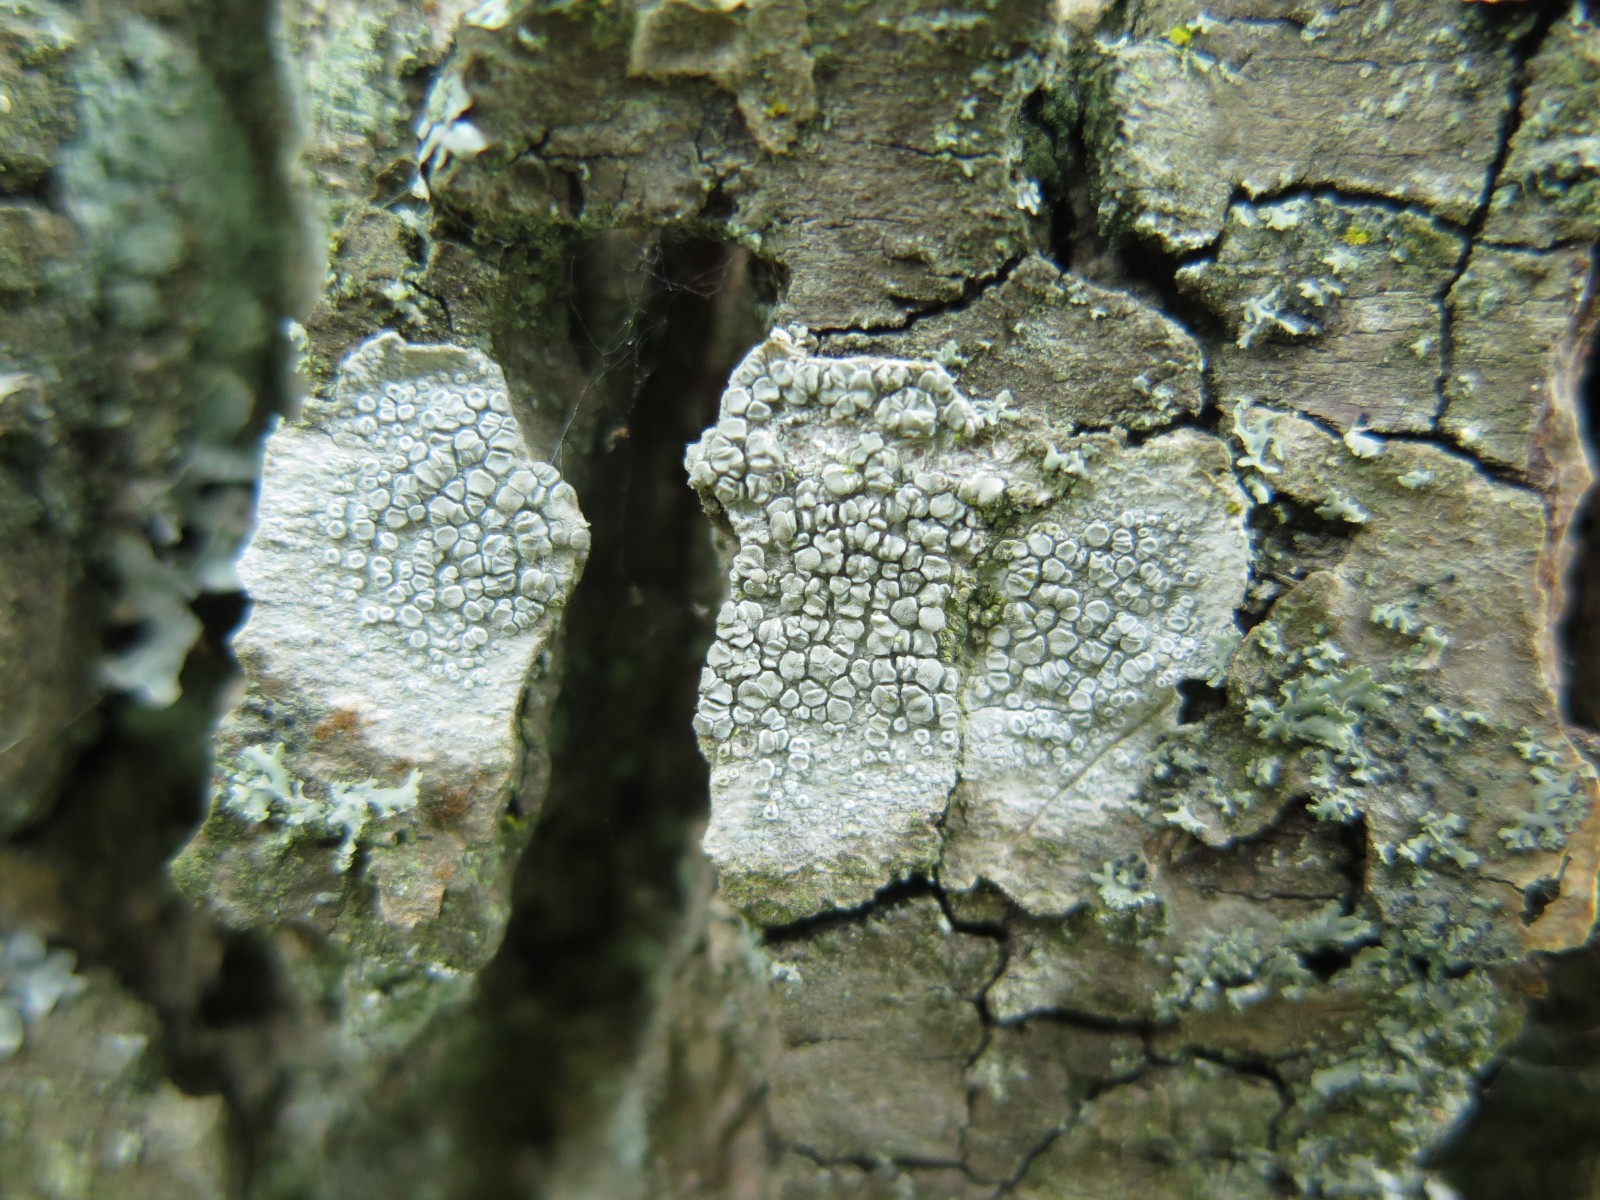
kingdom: Fungi
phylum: Ascomycota
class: Lecanoromycetes
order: Lecanorales
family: Lecanoraceae
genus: Glaucomaria
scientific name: Glaucomaria carpinea
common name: hviddugget kantskivelav
